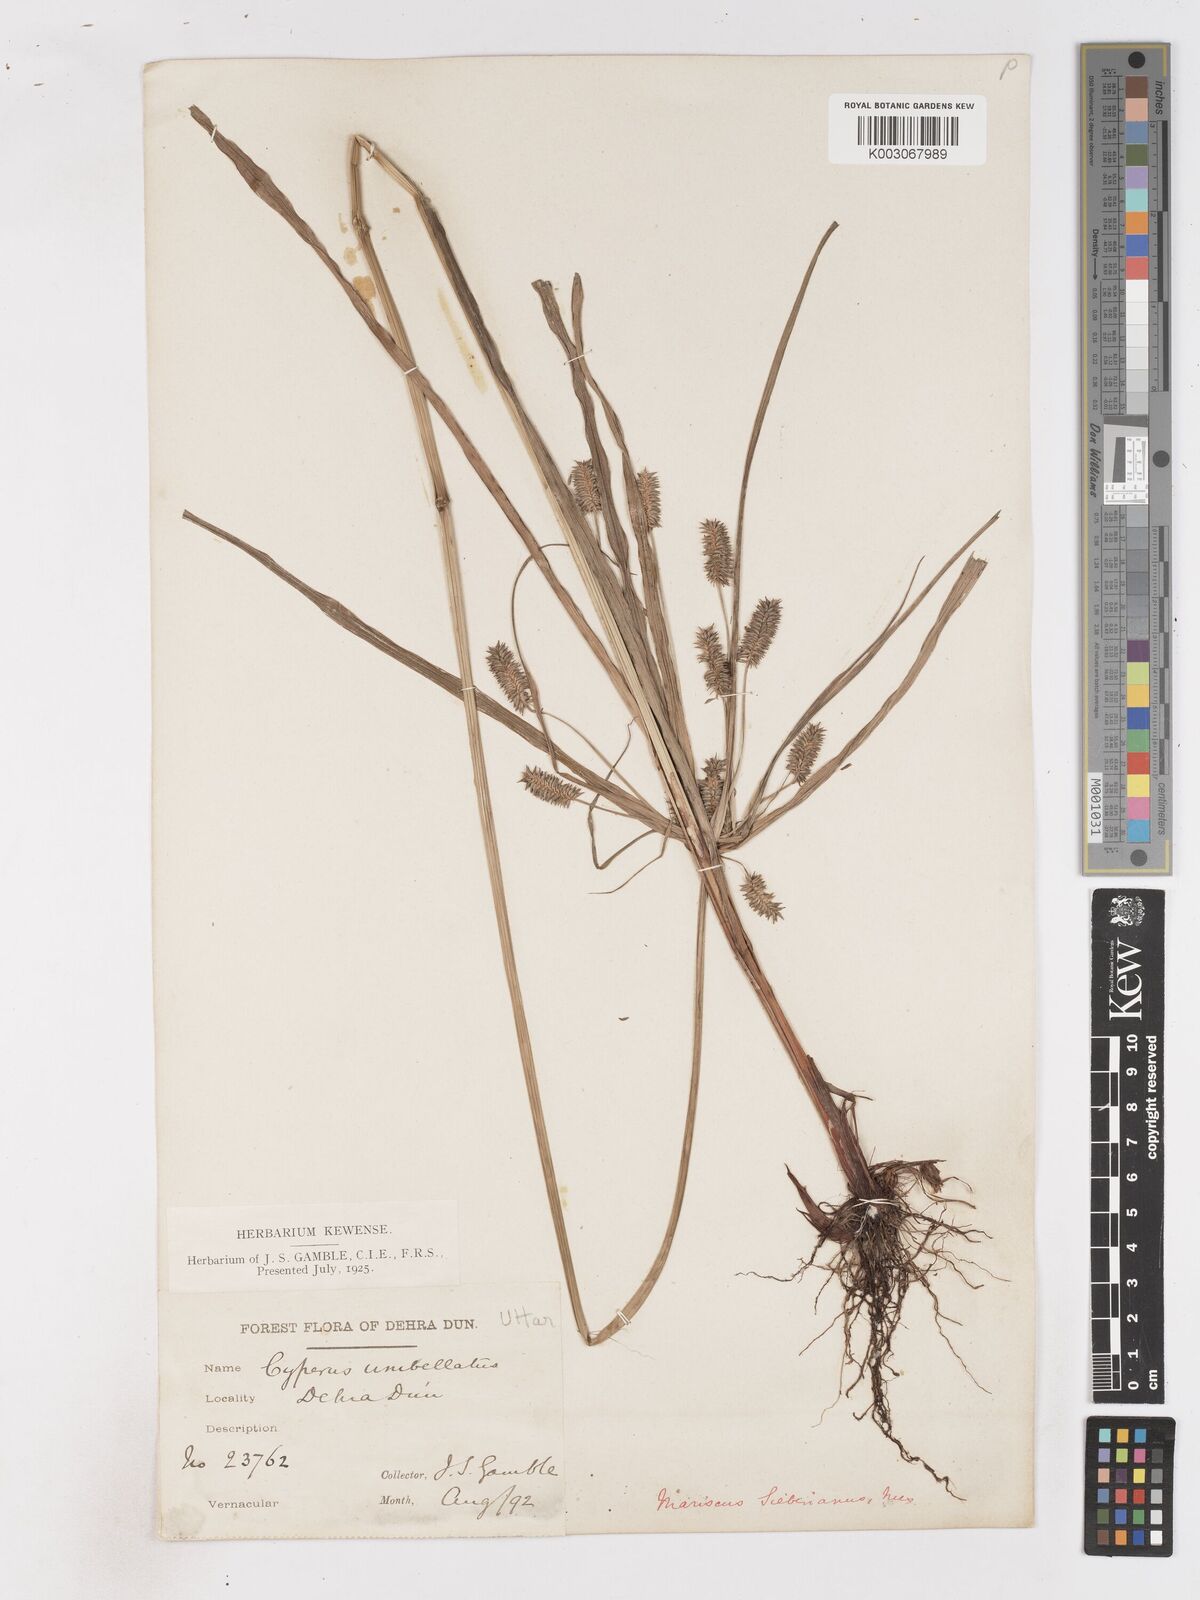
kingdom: Plantae
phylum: Tracheophyta
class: Liliopsida
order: Poales
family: Cyperaceae
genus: Cyperus
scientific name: Cyperus paniceus
